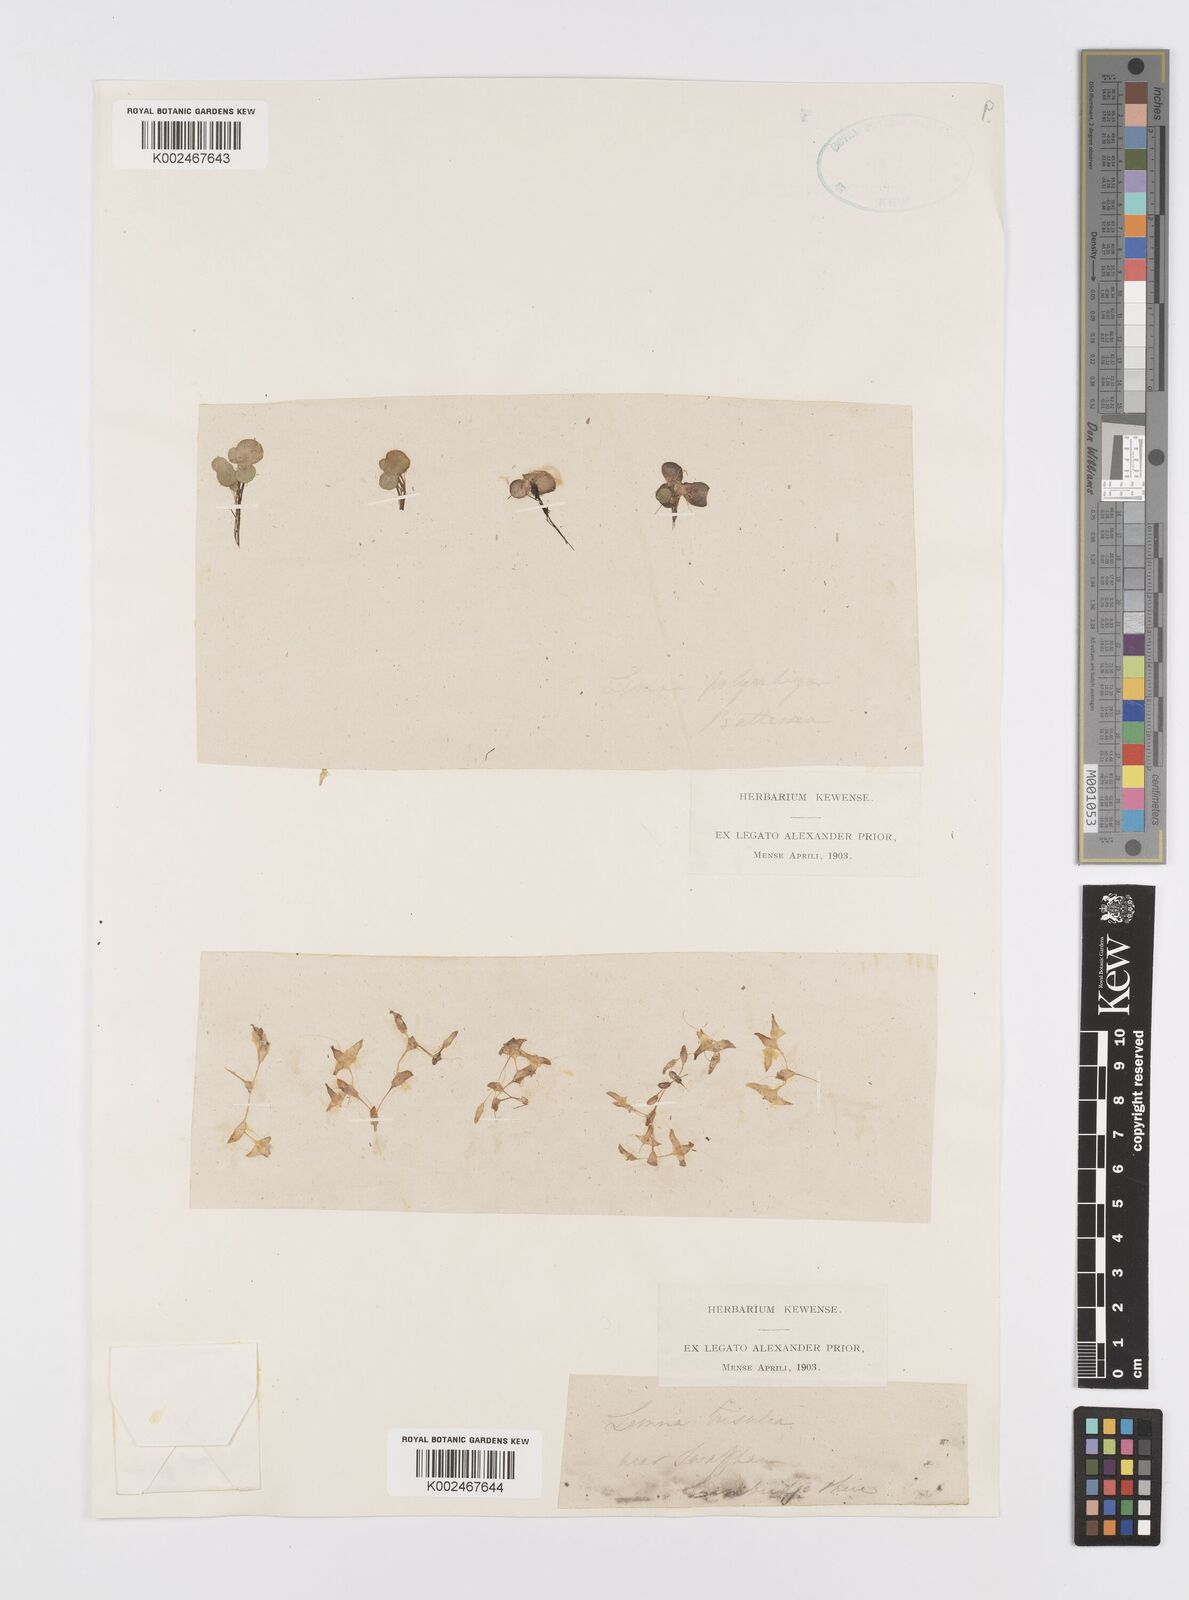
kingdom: Plantae
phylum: Tracheophyta
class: Liliopsida
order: Alismatales
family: Araceae
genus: Lemna
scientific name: Lemna trisulca
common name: Ivy-leaved duckweed
